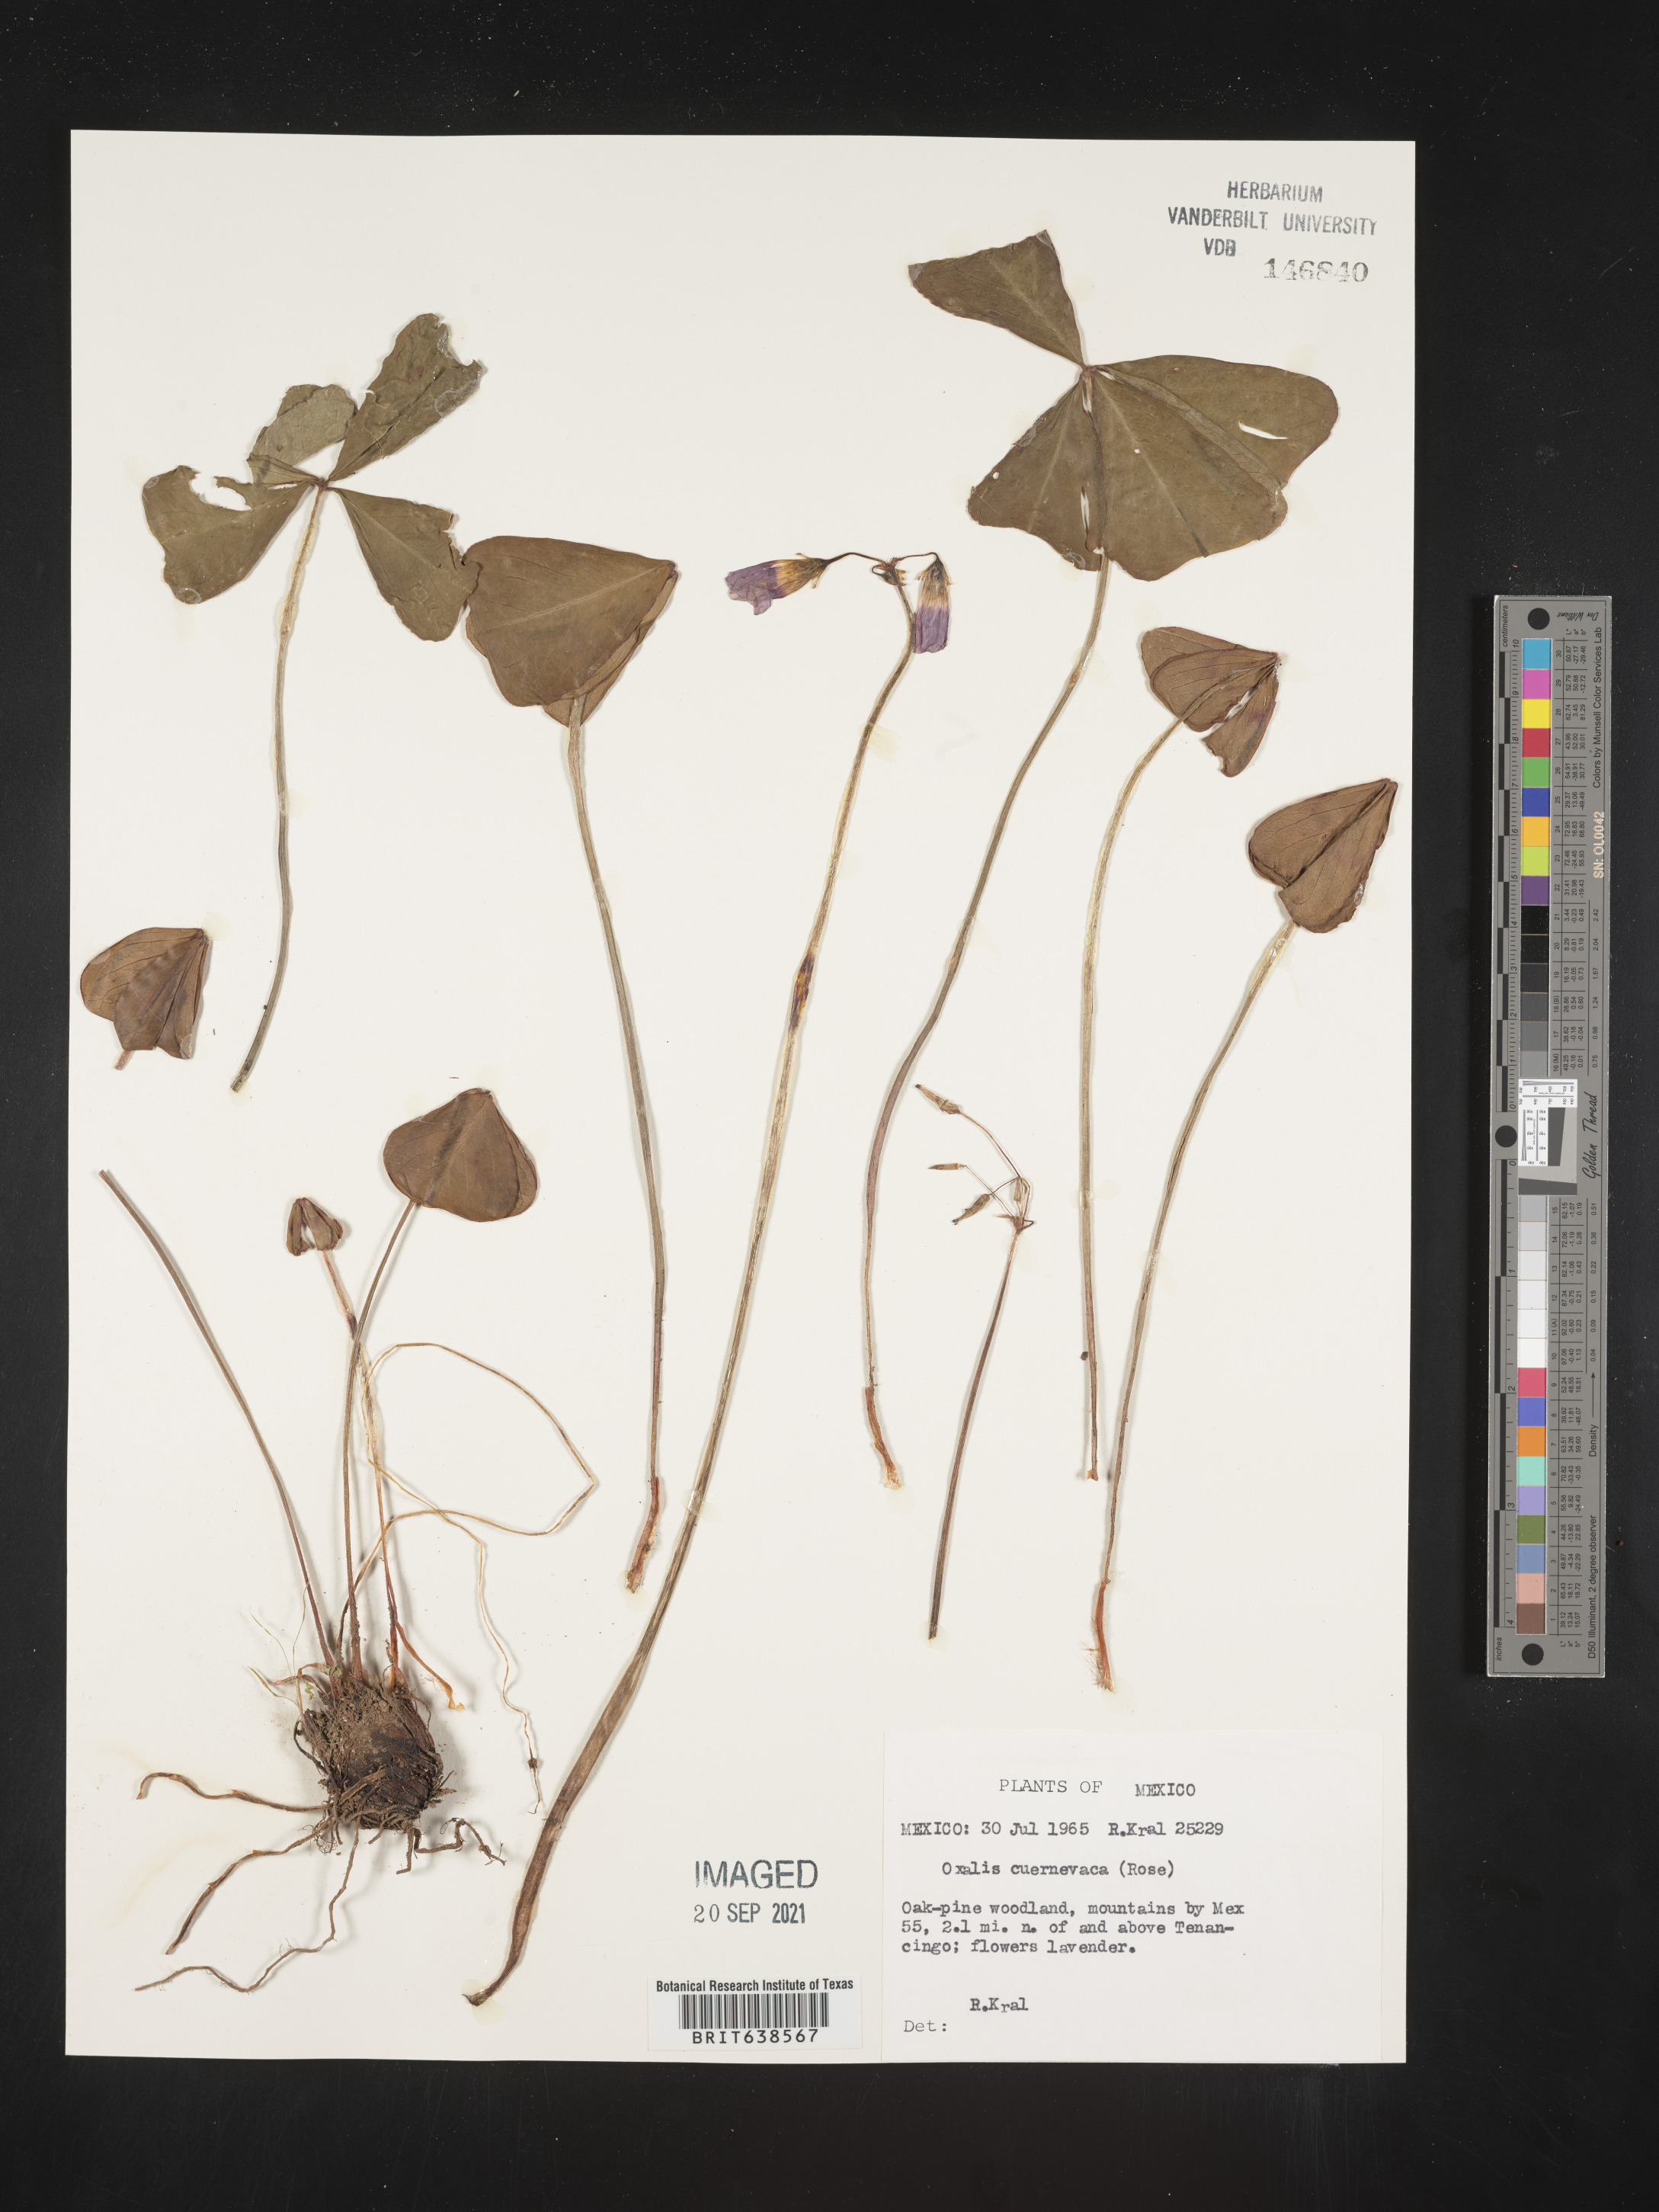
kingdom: Plantae
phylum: Tracheophyta
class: Magnoliopsida
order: Oxalidales
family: Oxalidaceae
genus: Oxalis
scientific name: Oxalis
